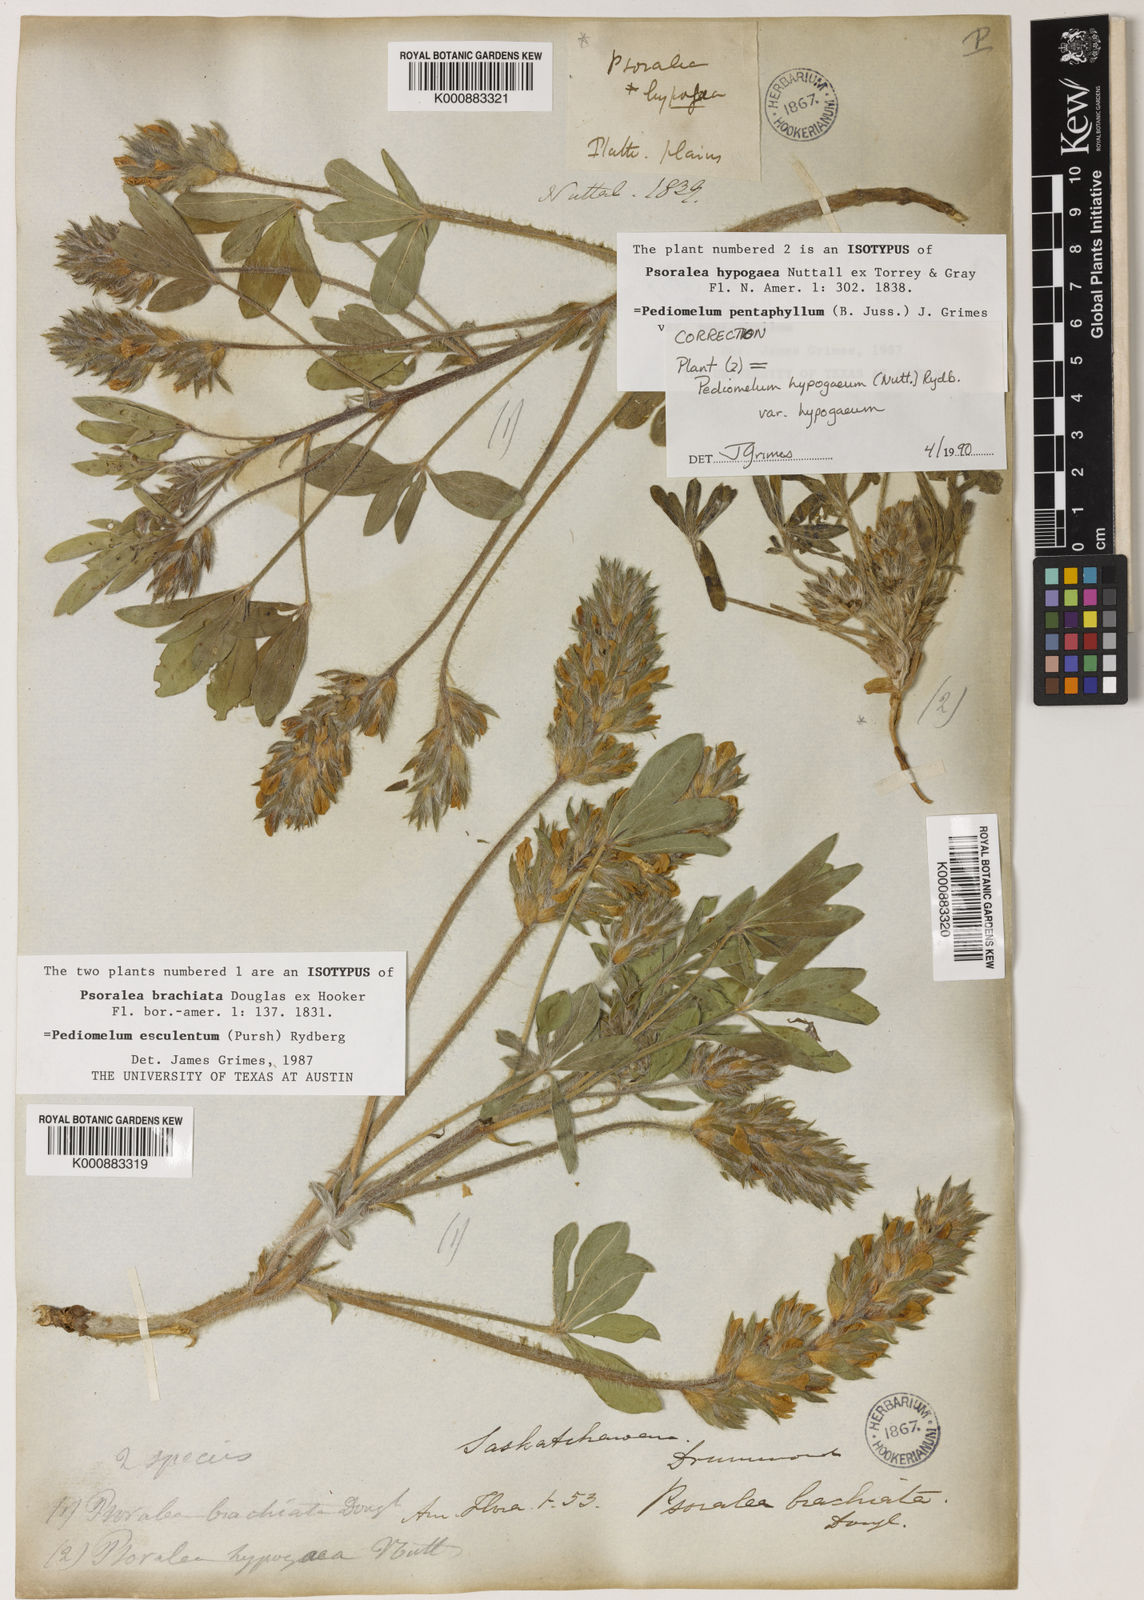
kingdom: Plantae
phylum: Tracheophyta
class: Magnoliopsida
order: Fabales
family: Fabaceae
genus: Pediomelum
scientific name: Pediomelum esculentum
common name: Indian-turnip
